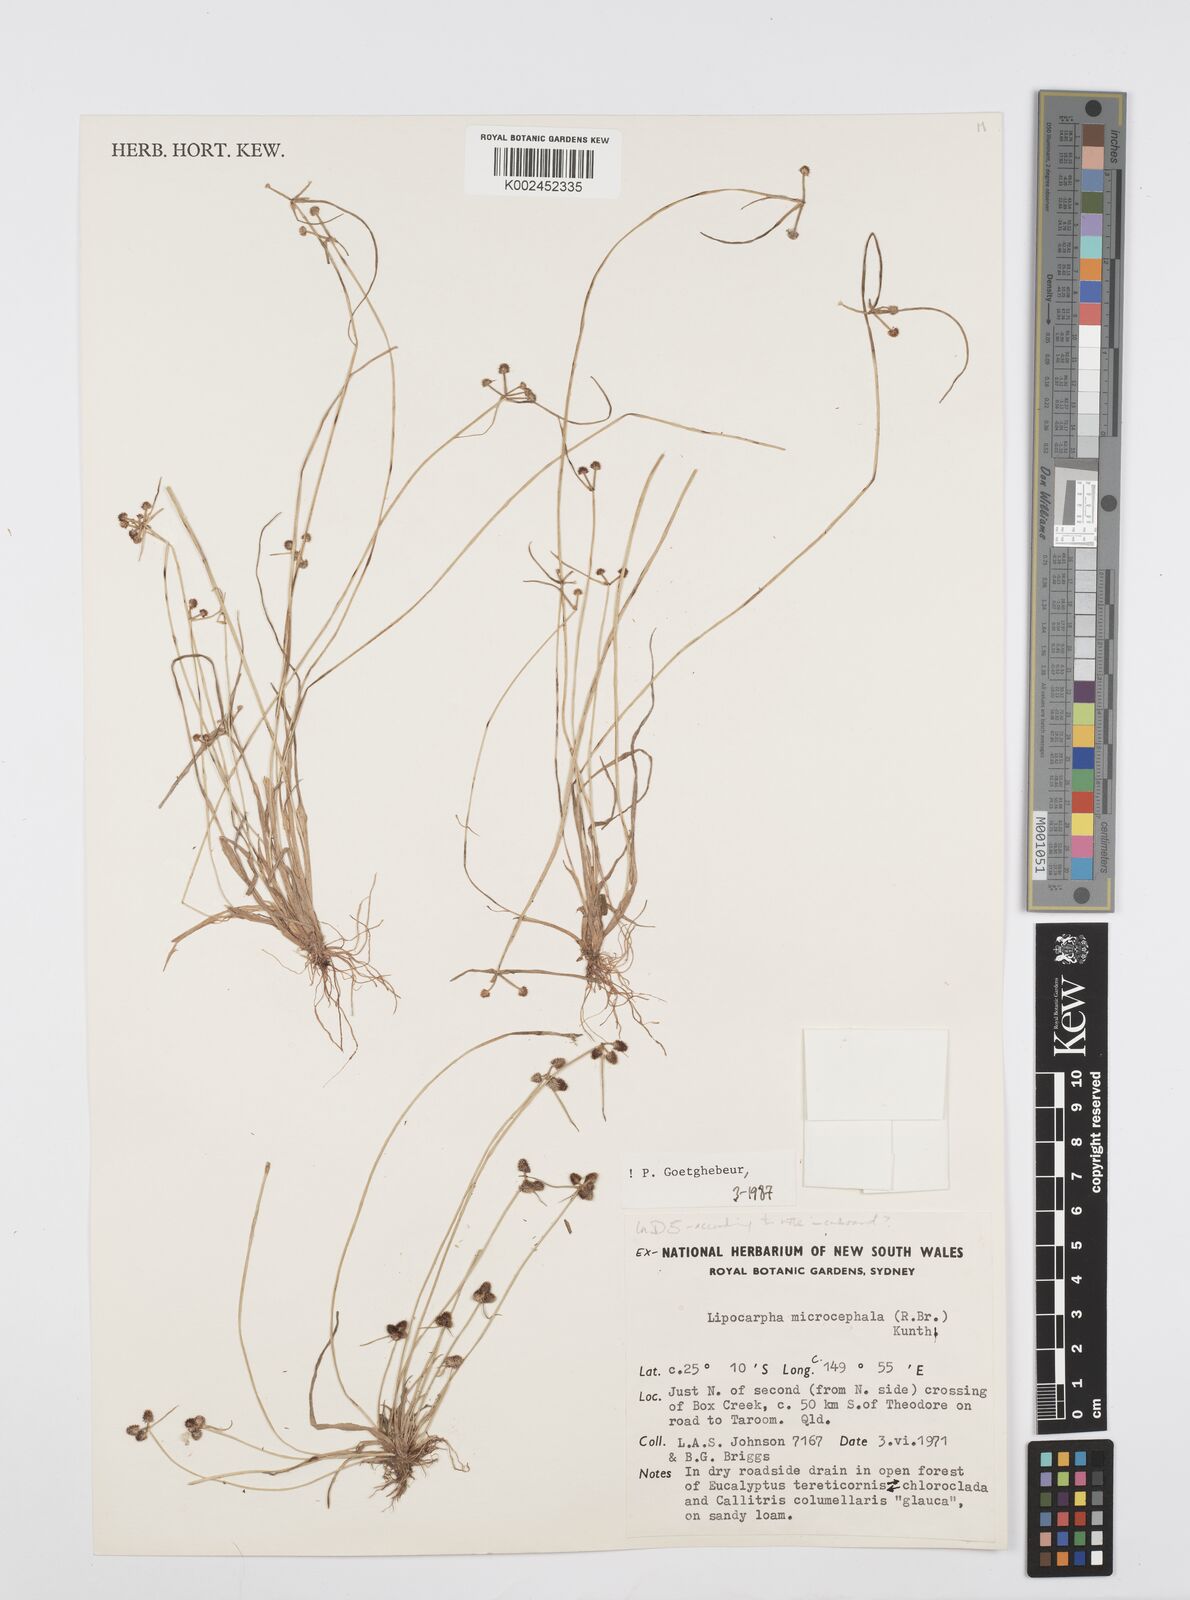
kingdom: Plantae
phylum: Tracheophyta
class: Liliopsida
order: Poales
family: Cyperaceae
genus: Cyperus
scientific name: Cyperus microcephalus
